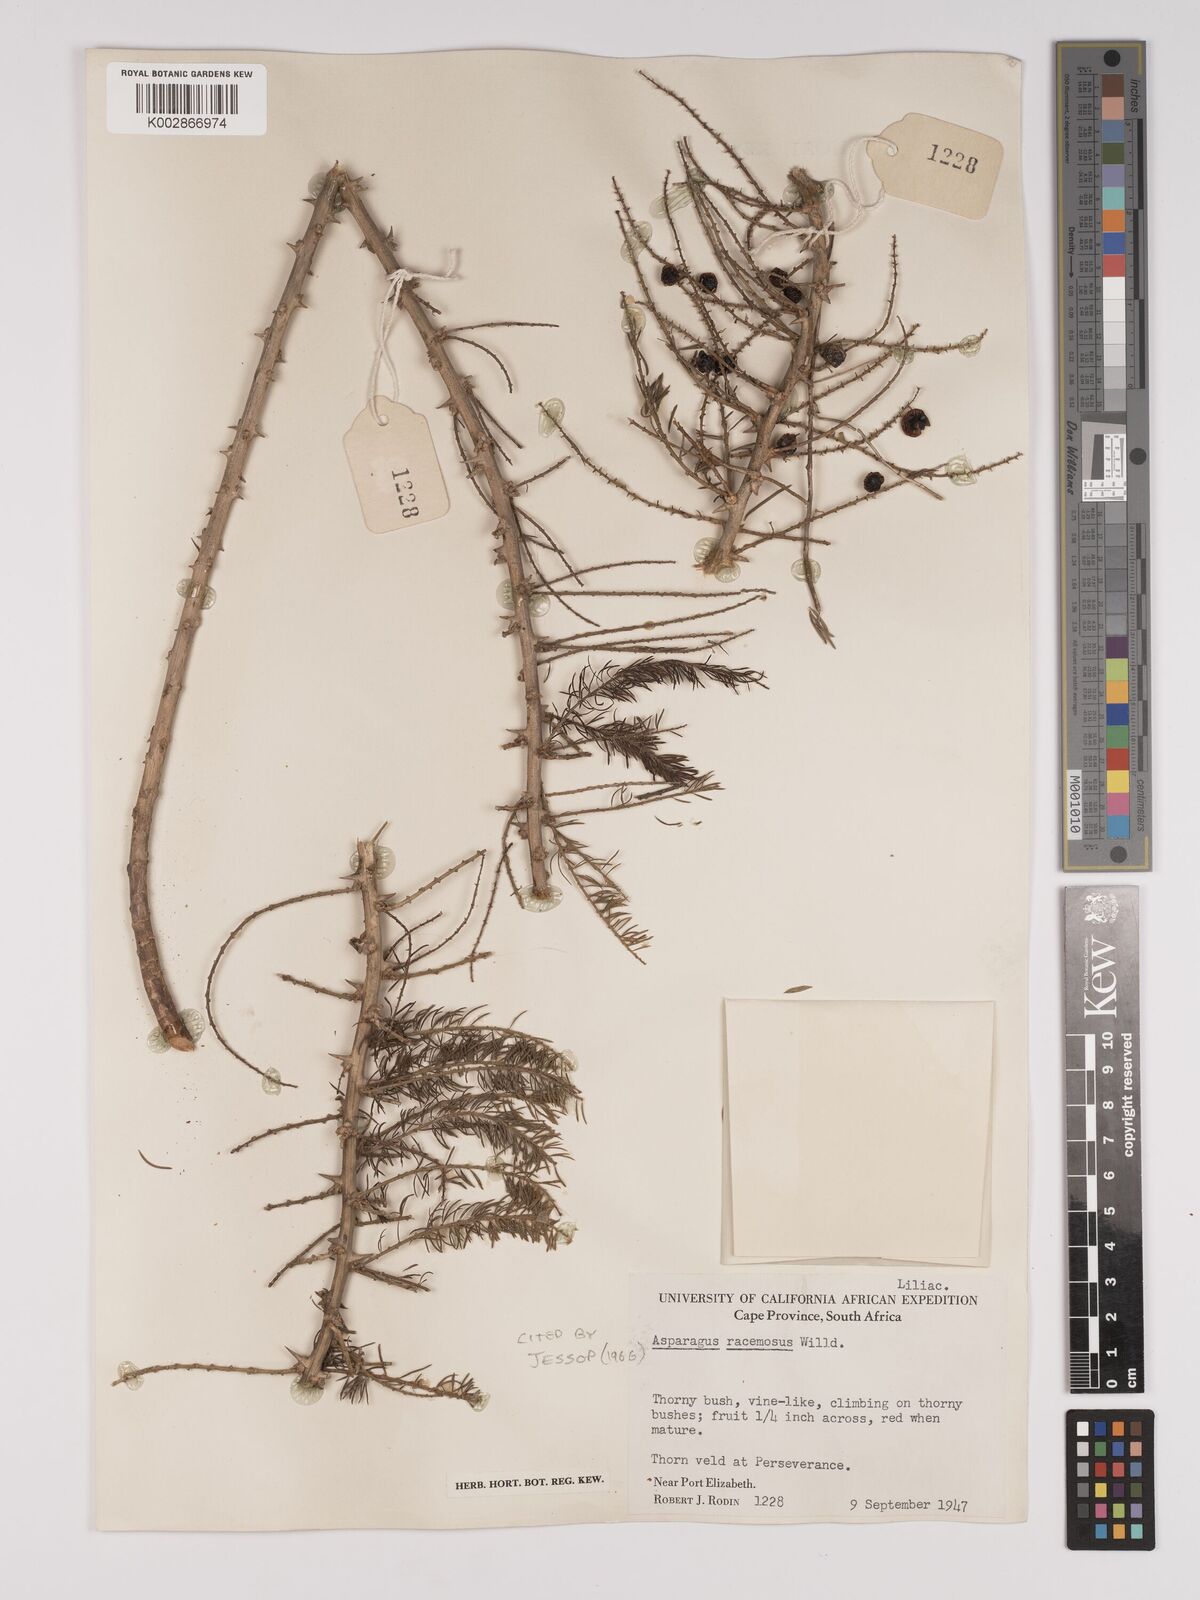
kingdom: Plantae
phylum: Tracheophyta
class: Liliopsida
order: Asparagales
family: Asparagaceae
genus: Asparagus
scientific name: Asparagus racemosus
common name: Asparagus-fern
